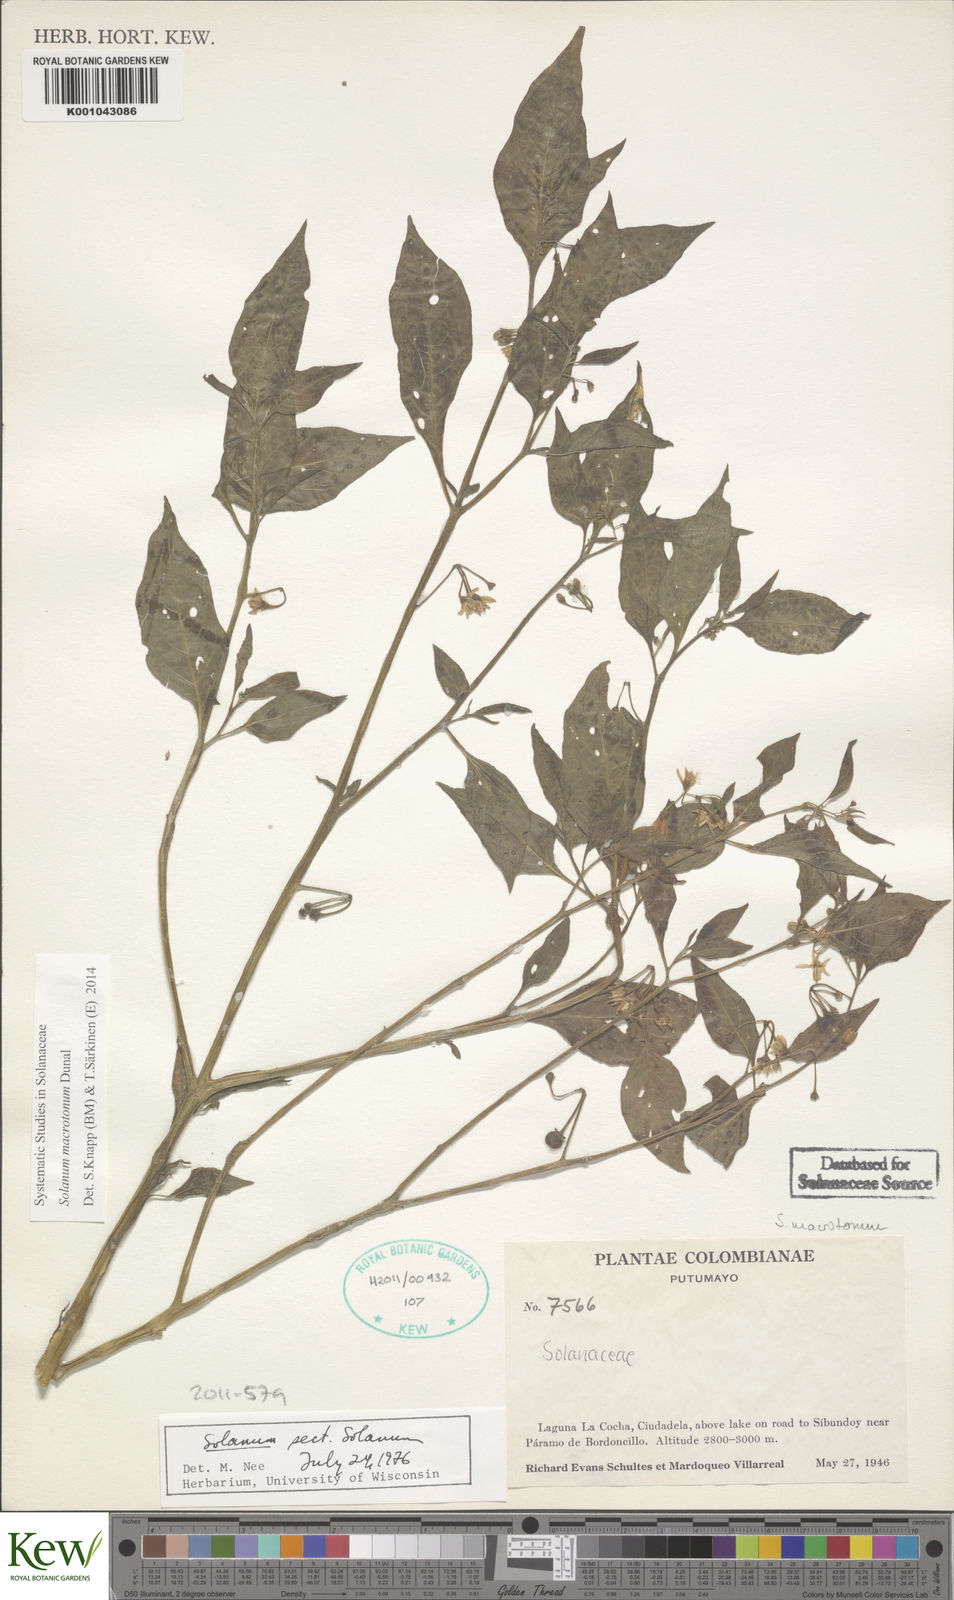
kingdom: Plantae
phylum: Tracheophyta
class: Magnoliopsida
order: Solanales
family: Solanaceae
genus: Solanum
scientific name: Solanum macrotonum
